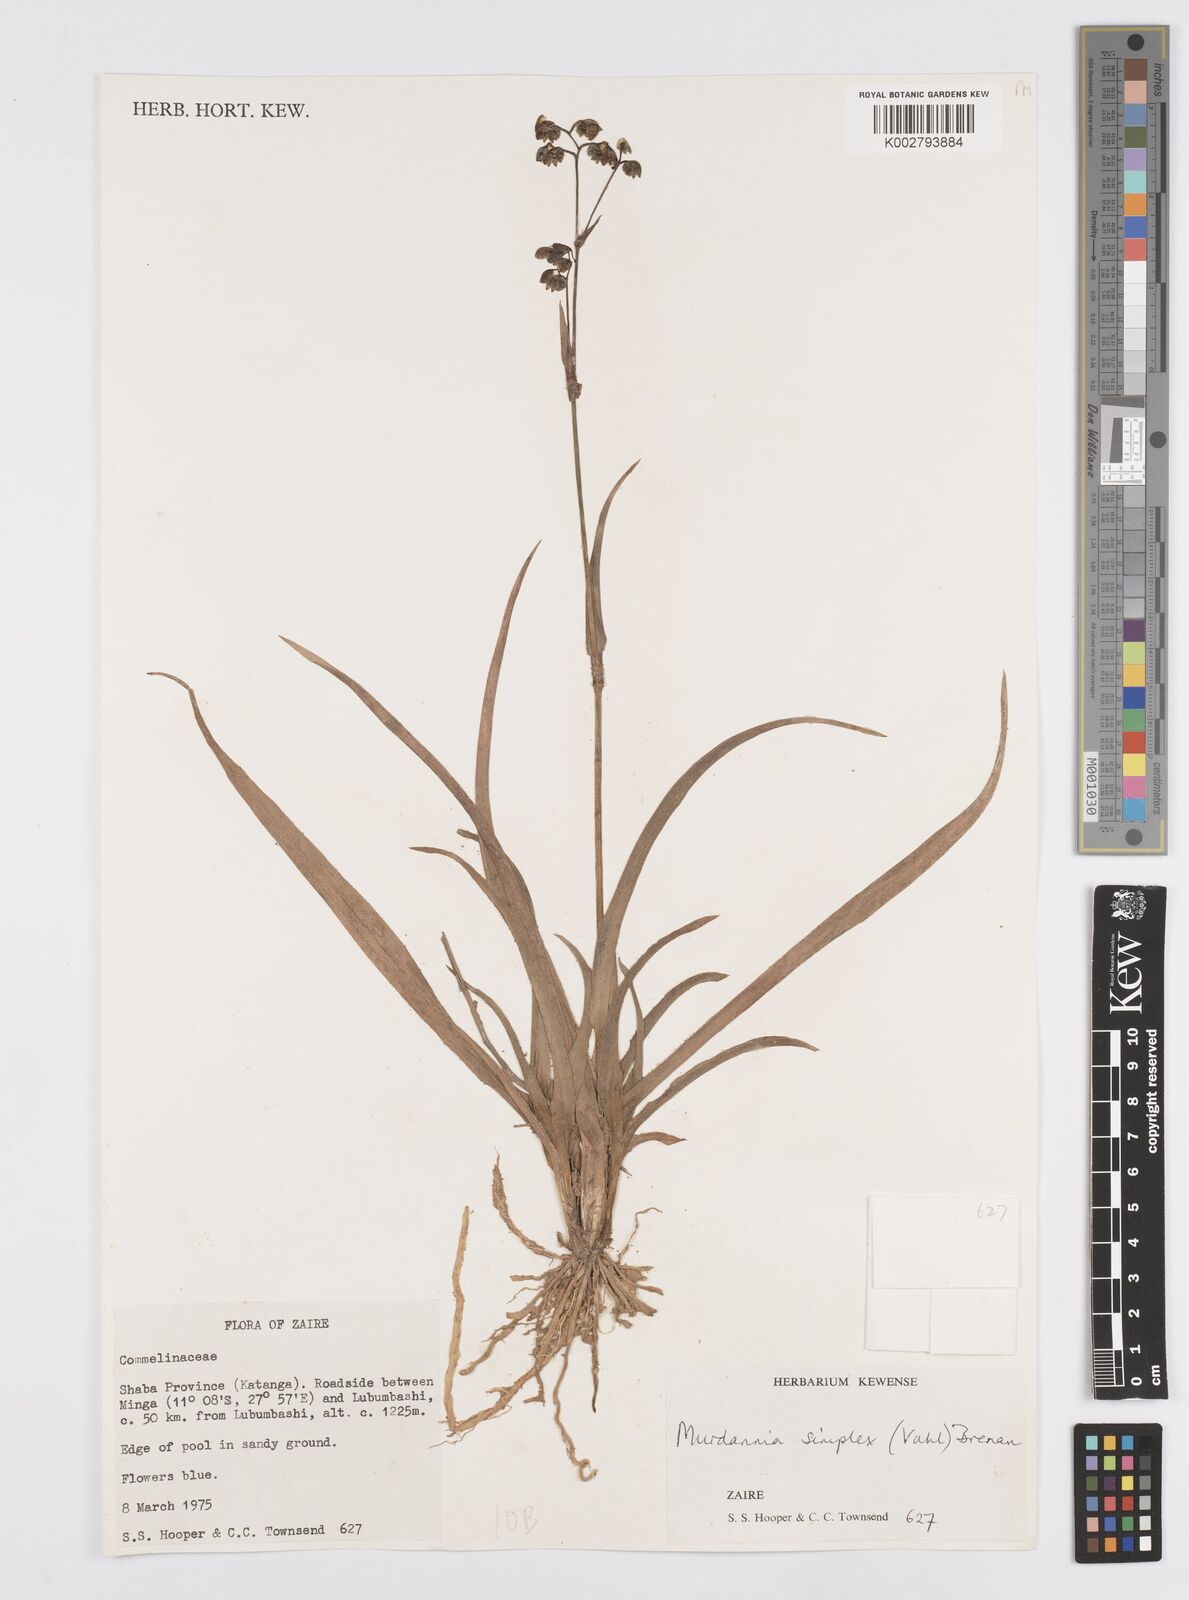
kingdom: Plantae
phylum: Tracheophyta
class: Liliopsida
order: Commelinales
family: Commelinaceae
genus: Murdannia
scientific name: Murdannia simplex
